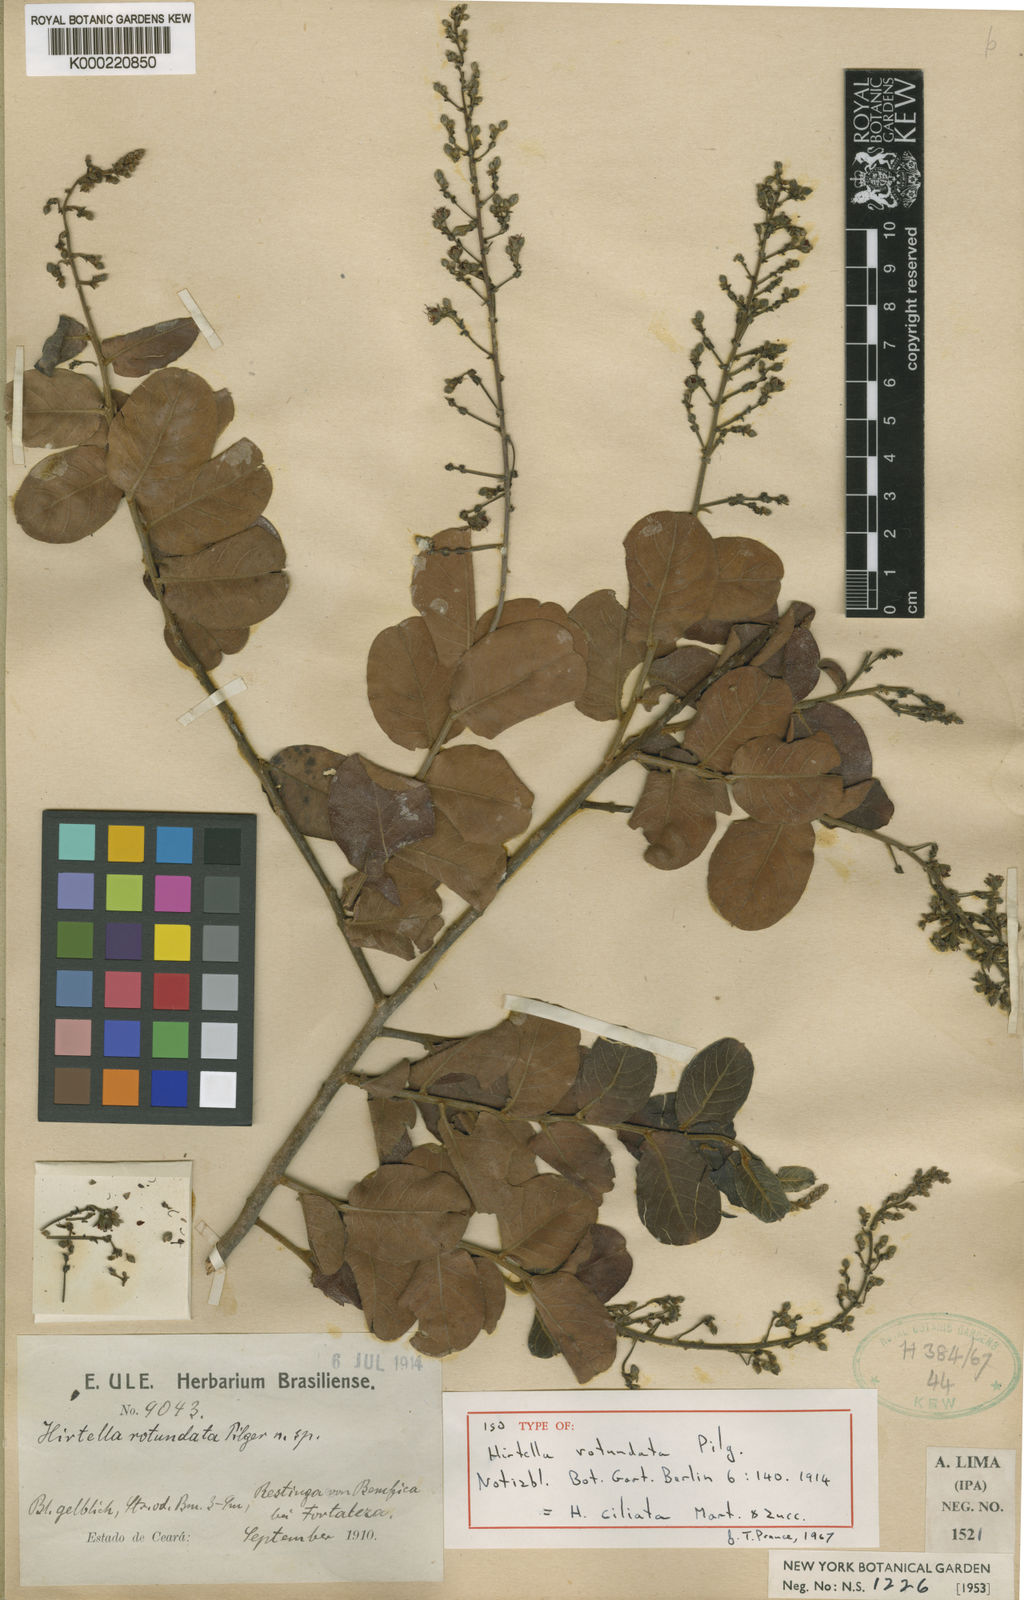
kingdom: Plantae
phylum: Tracheophyta
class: Magnoliopsida
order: Malpighiales
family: Chrysobalanaceae
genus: Hirtella
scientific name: Hirtella ciliata
